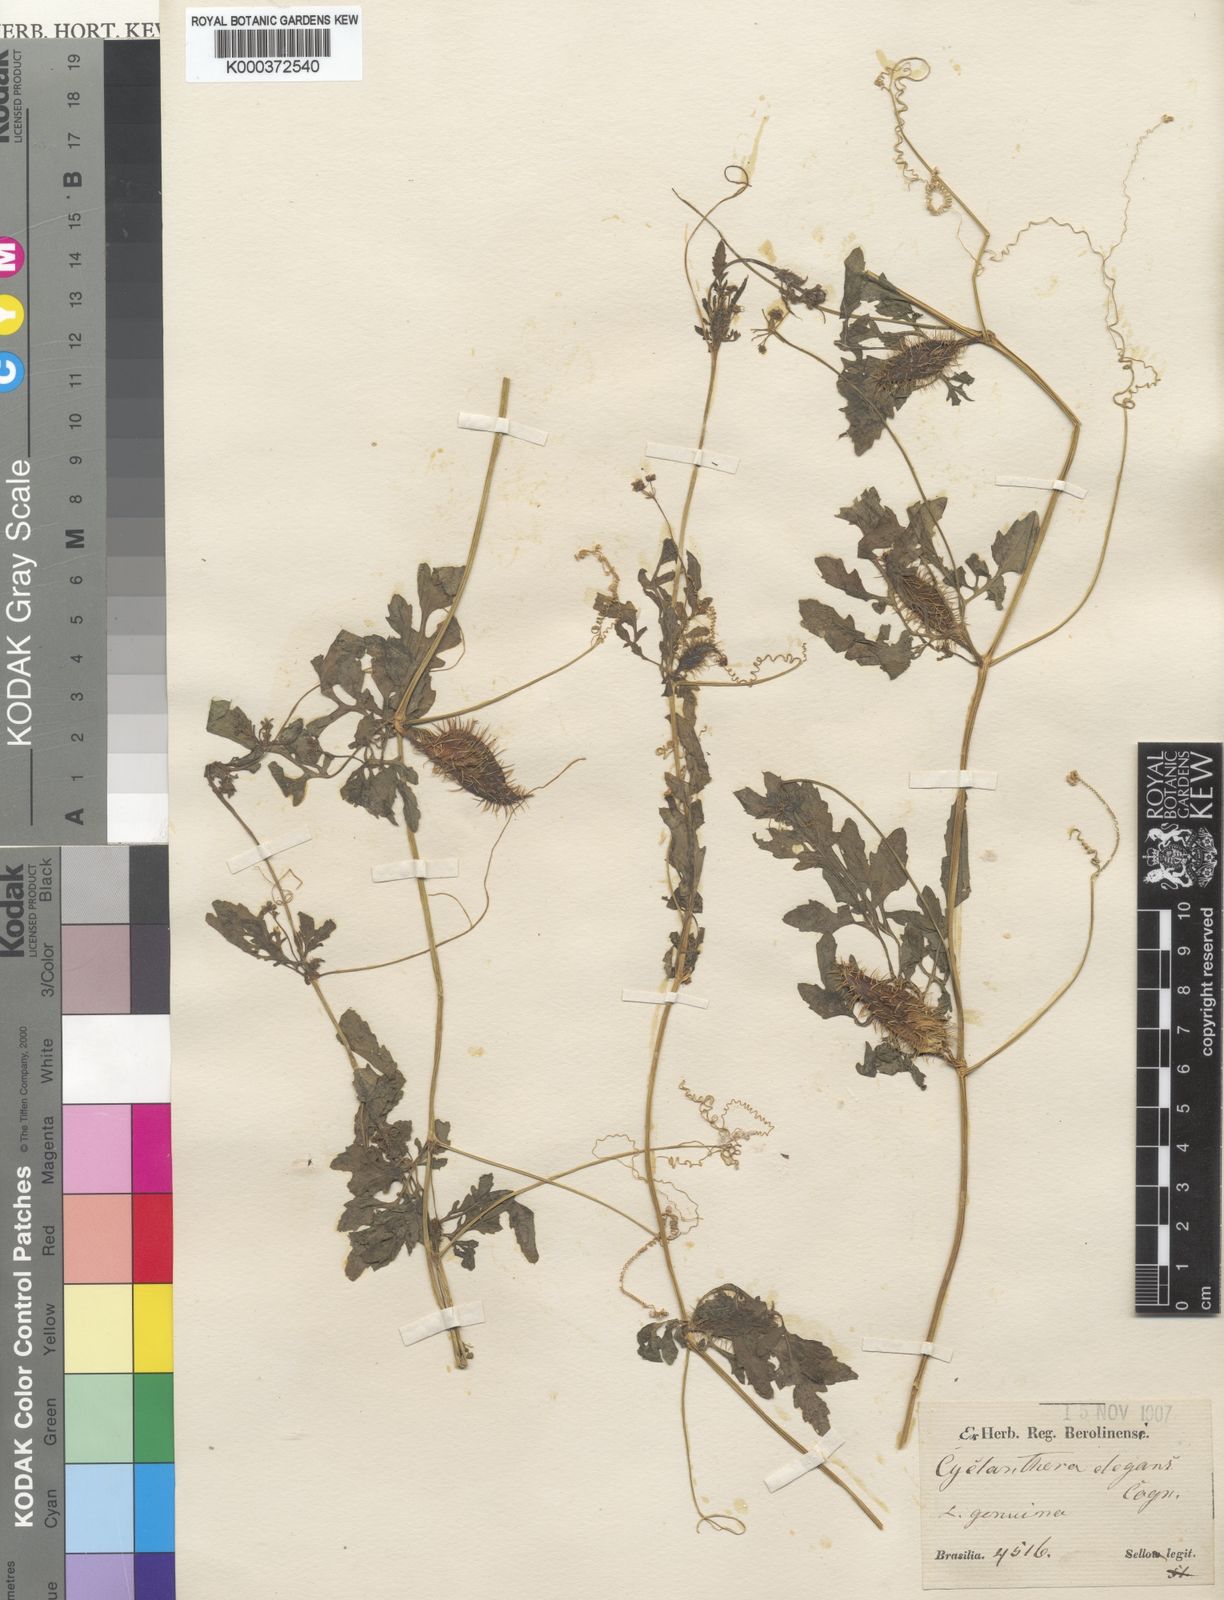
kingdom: Plantae
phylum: Tracheophyta
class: Magnoliopsida
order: Cucurbitales
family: Cucurbitaceae
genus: Cyclanthera
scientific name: Cyclanthera tenuisepala
